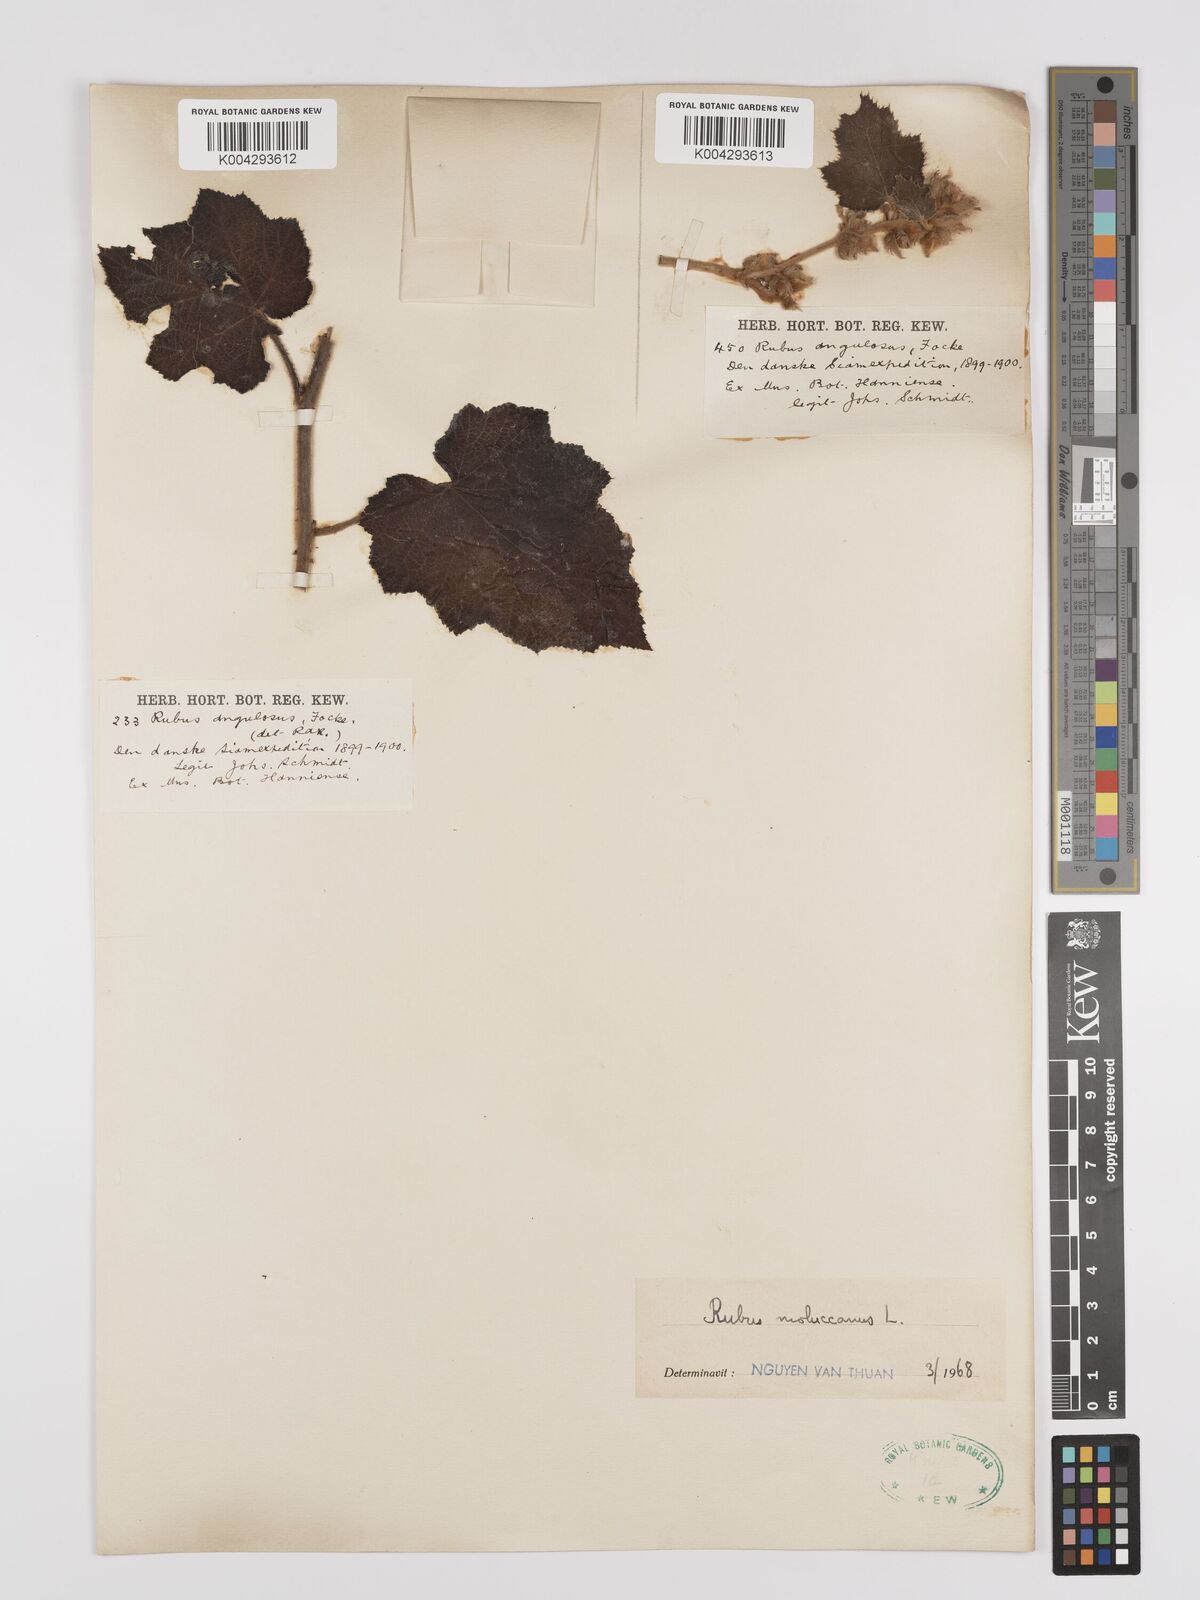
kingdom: Plantae
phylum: Tracheophyta
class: Magnoliopsida
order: Rosales
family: Rosaceae
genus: Rubus
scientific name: Rubus moluccanus
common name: Wild raspberry
